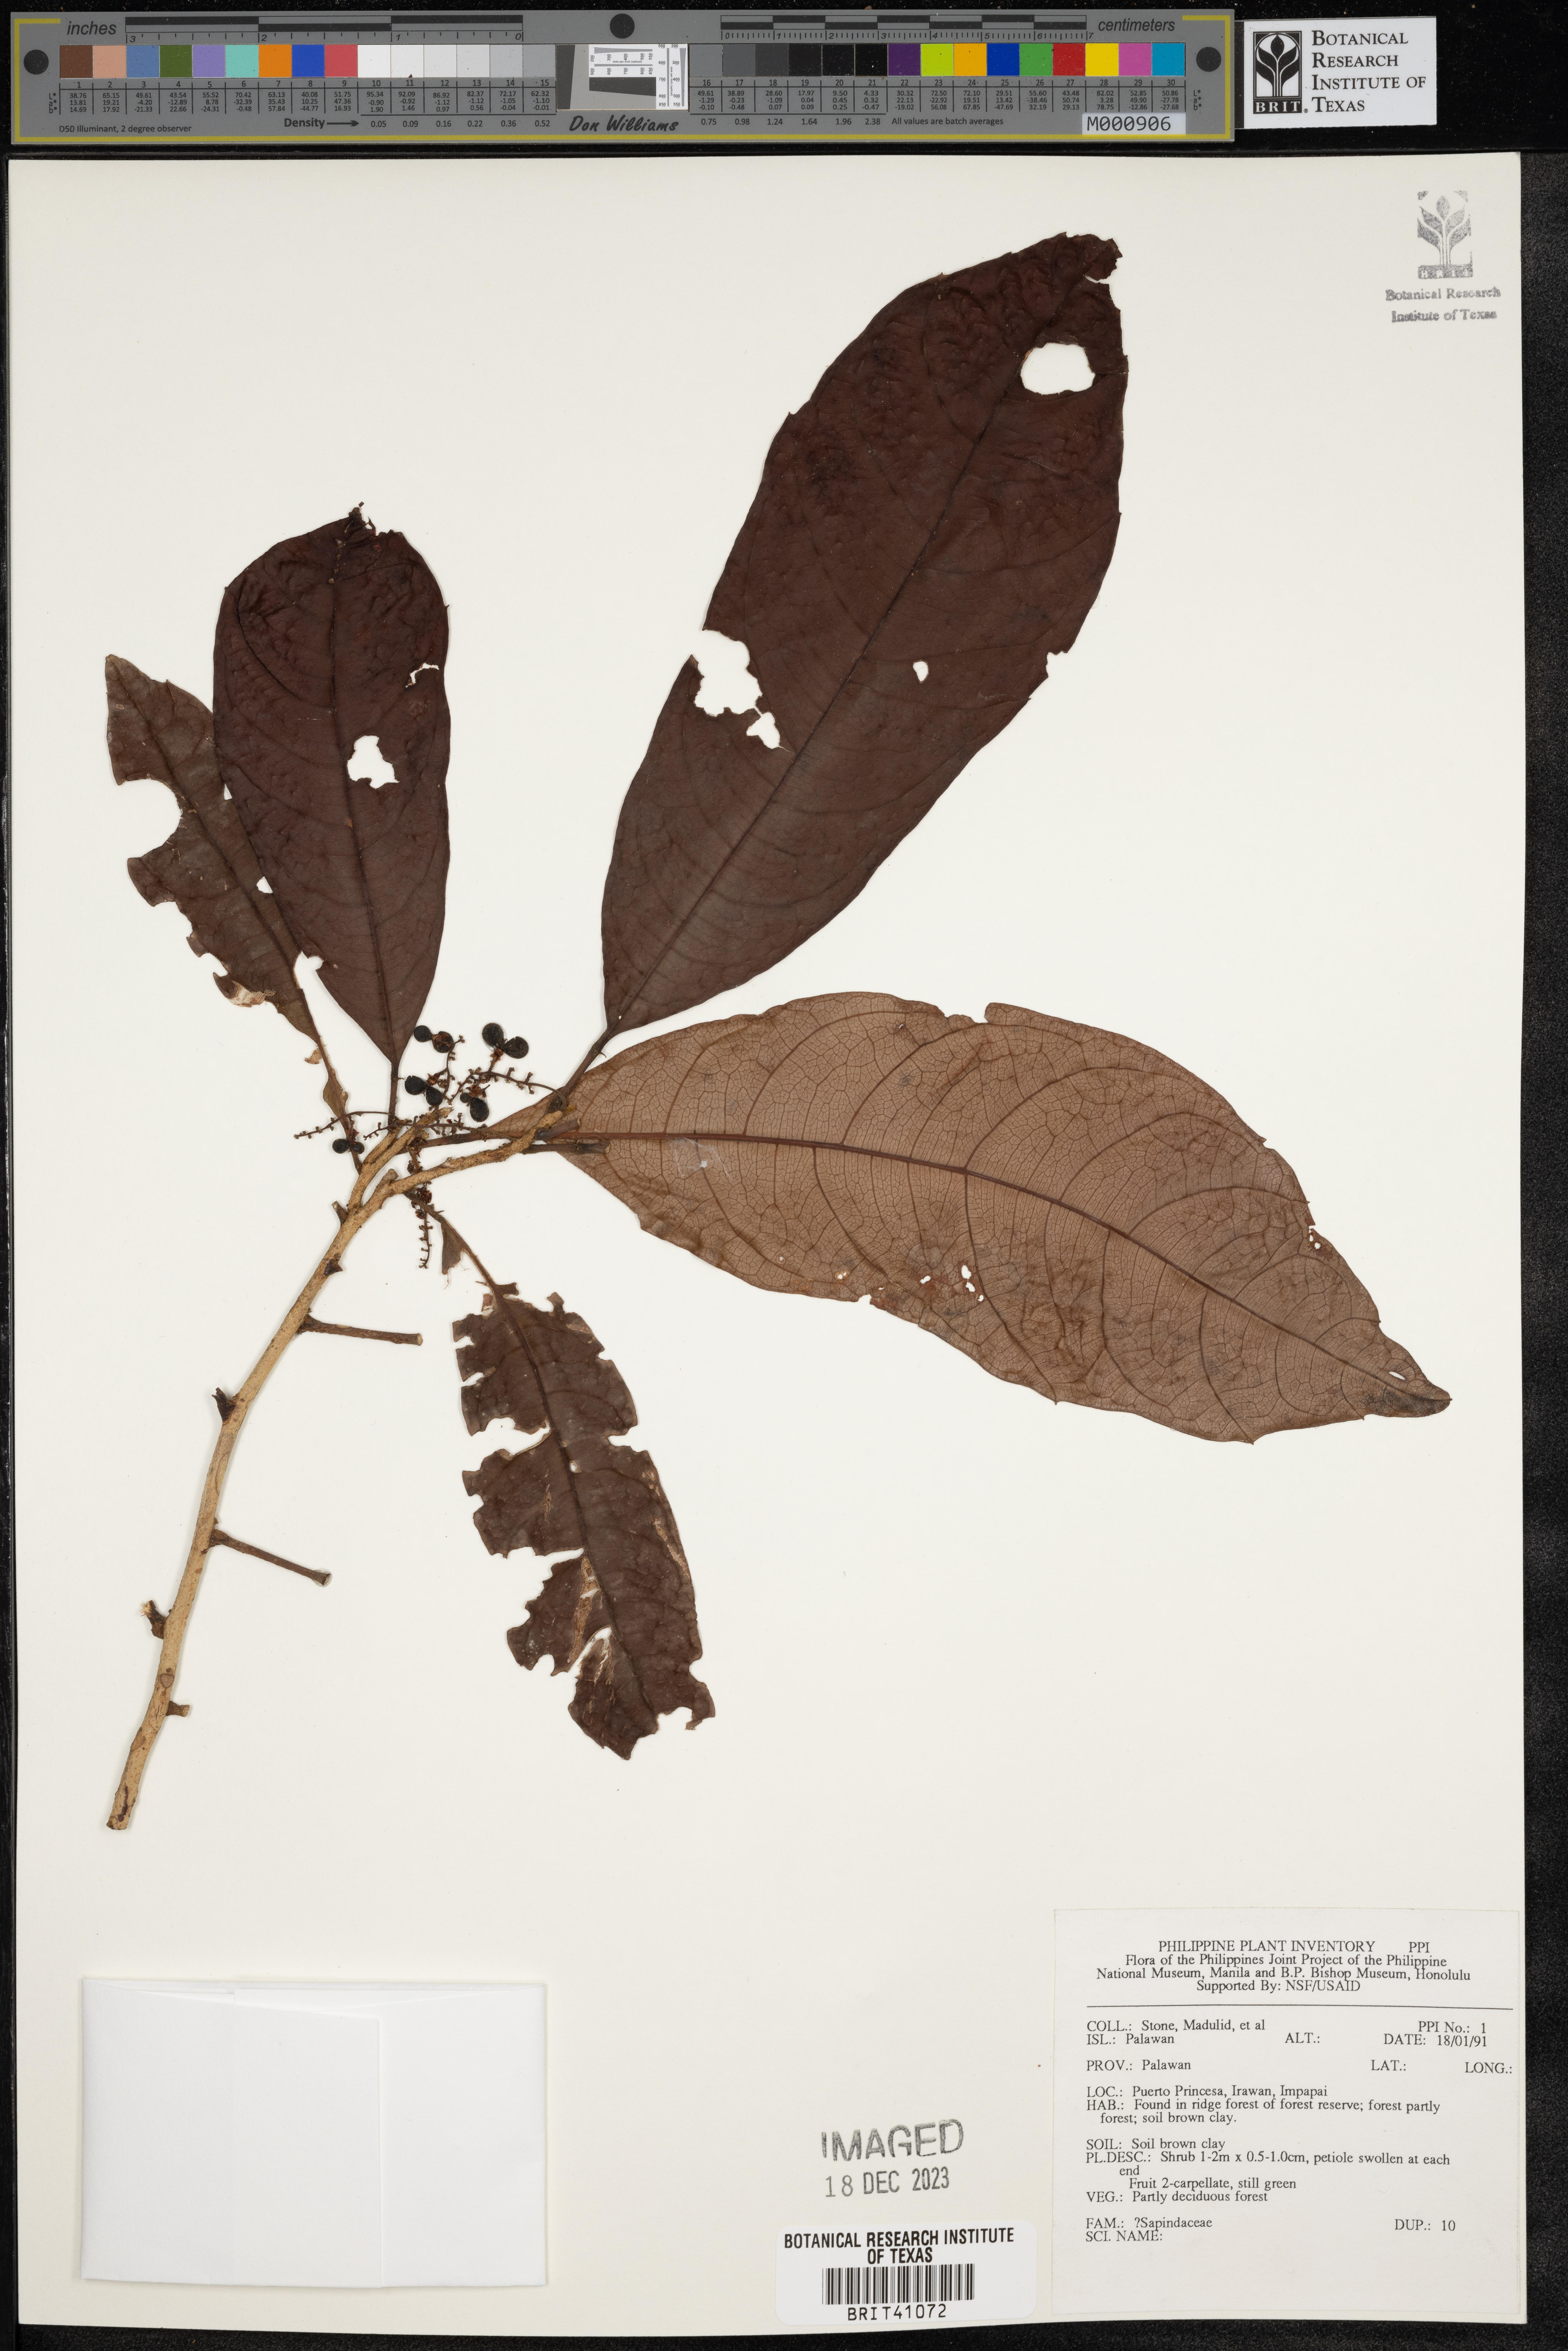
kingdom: Plantae
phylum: Tracheophyta
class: Magnoliopsida
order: Sapindales
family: Sapindaceae
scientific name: Sapindaceae
